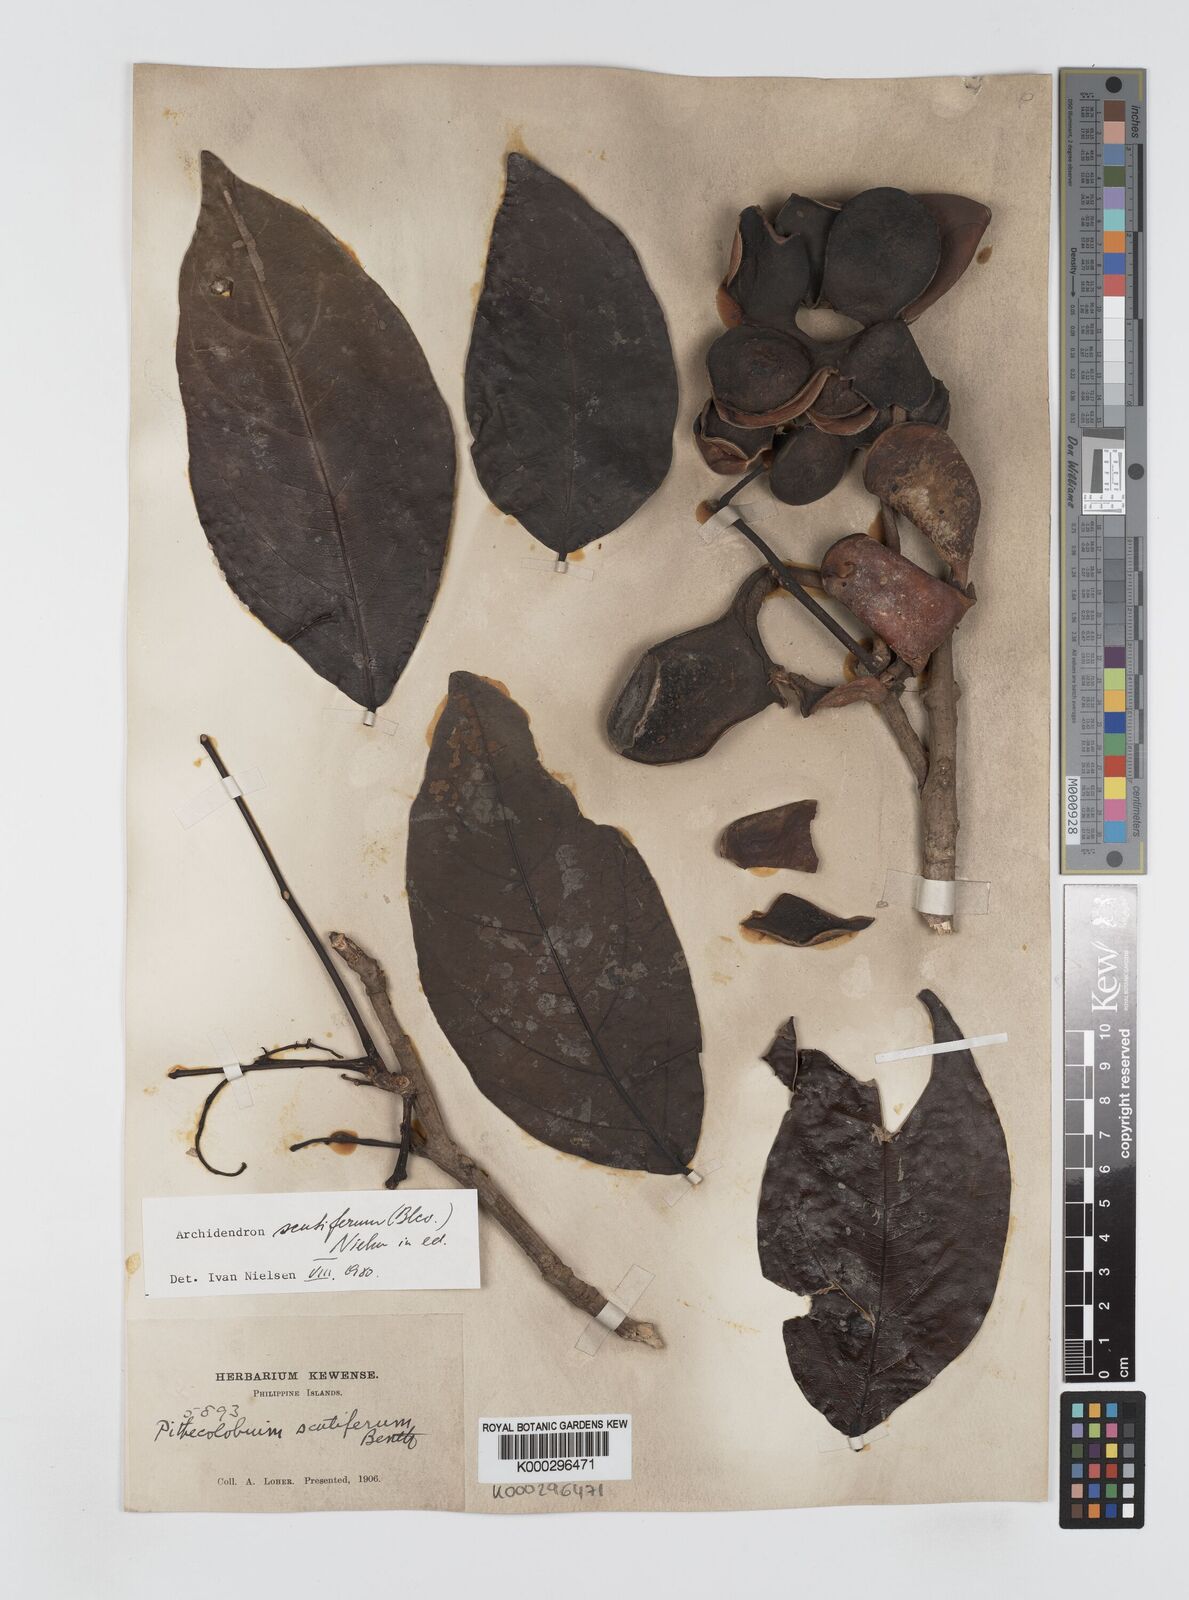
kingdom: Plantae
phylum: Tracheophyta
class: Magnoliopsida
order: Fabales
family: Fabaceae
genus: Archidendron
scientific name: Archidendron scutiferum
